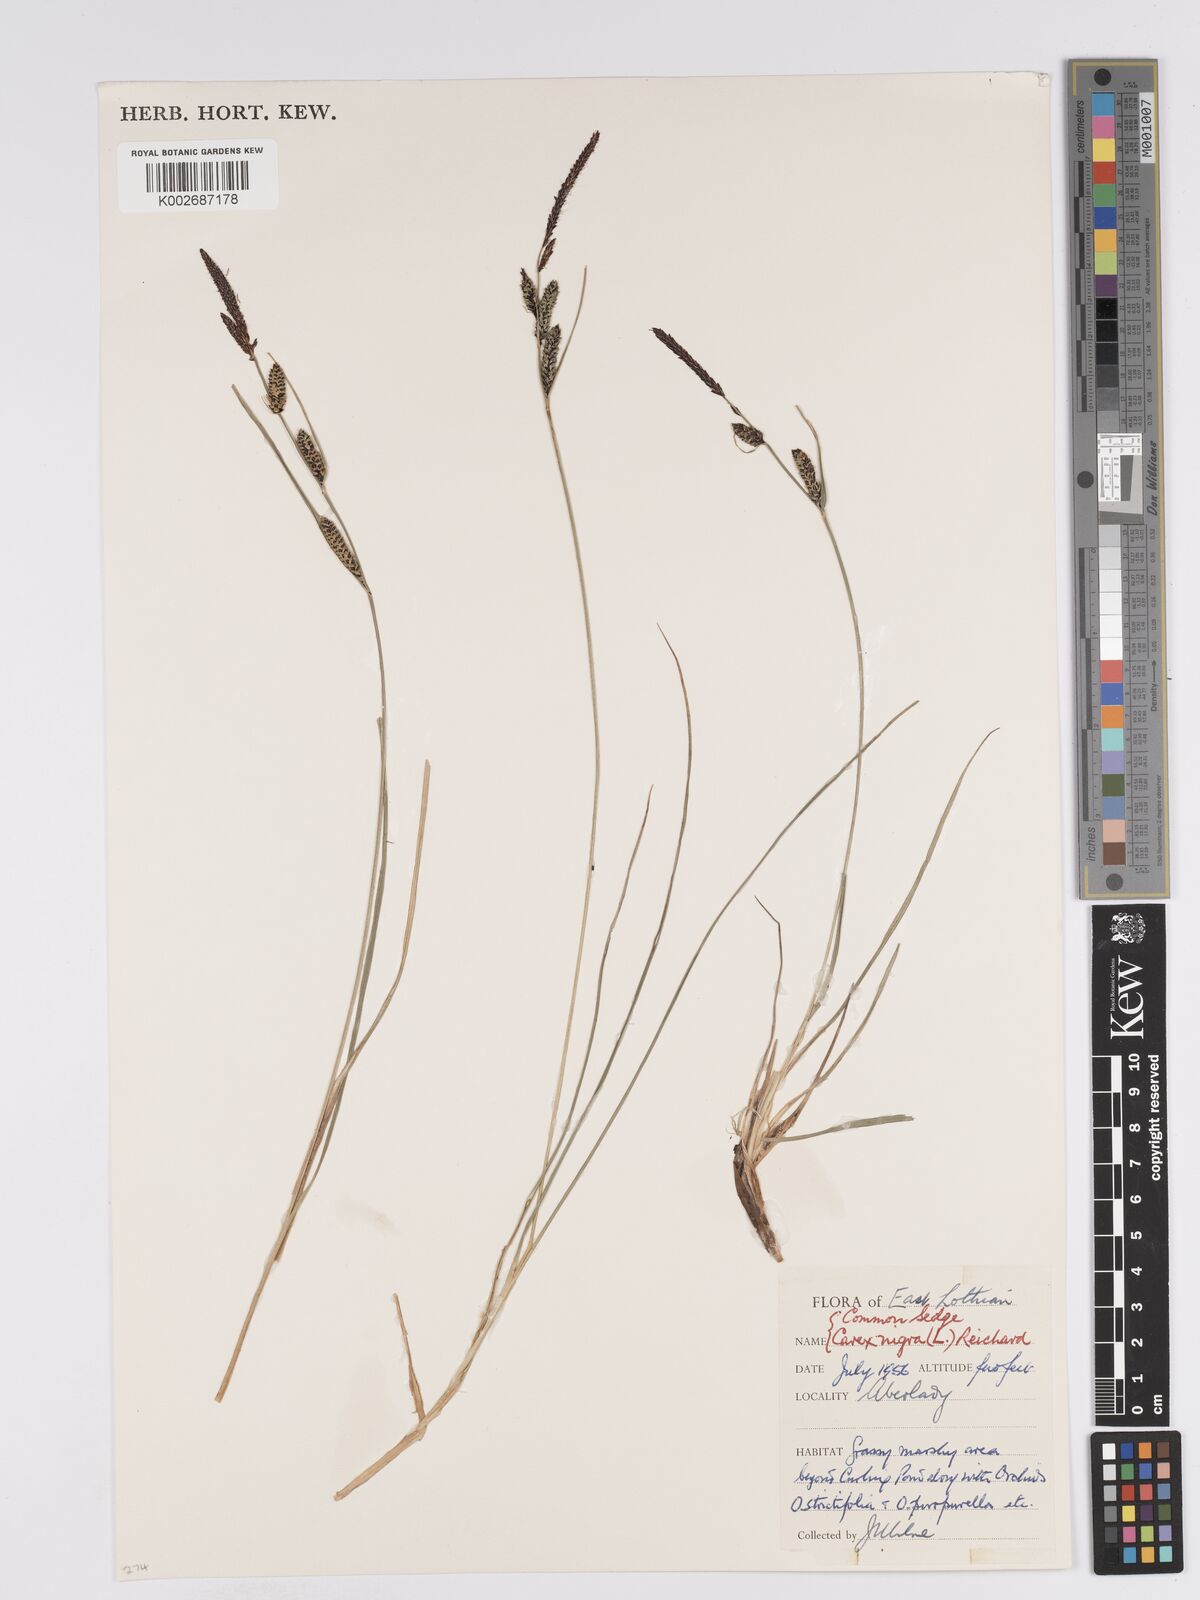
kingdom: Plantae
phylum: Tracheophyta
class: Liliopsida
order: Poales
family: Cyperaceae
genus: Carex
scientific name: Carex nigra
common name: Common sedge
